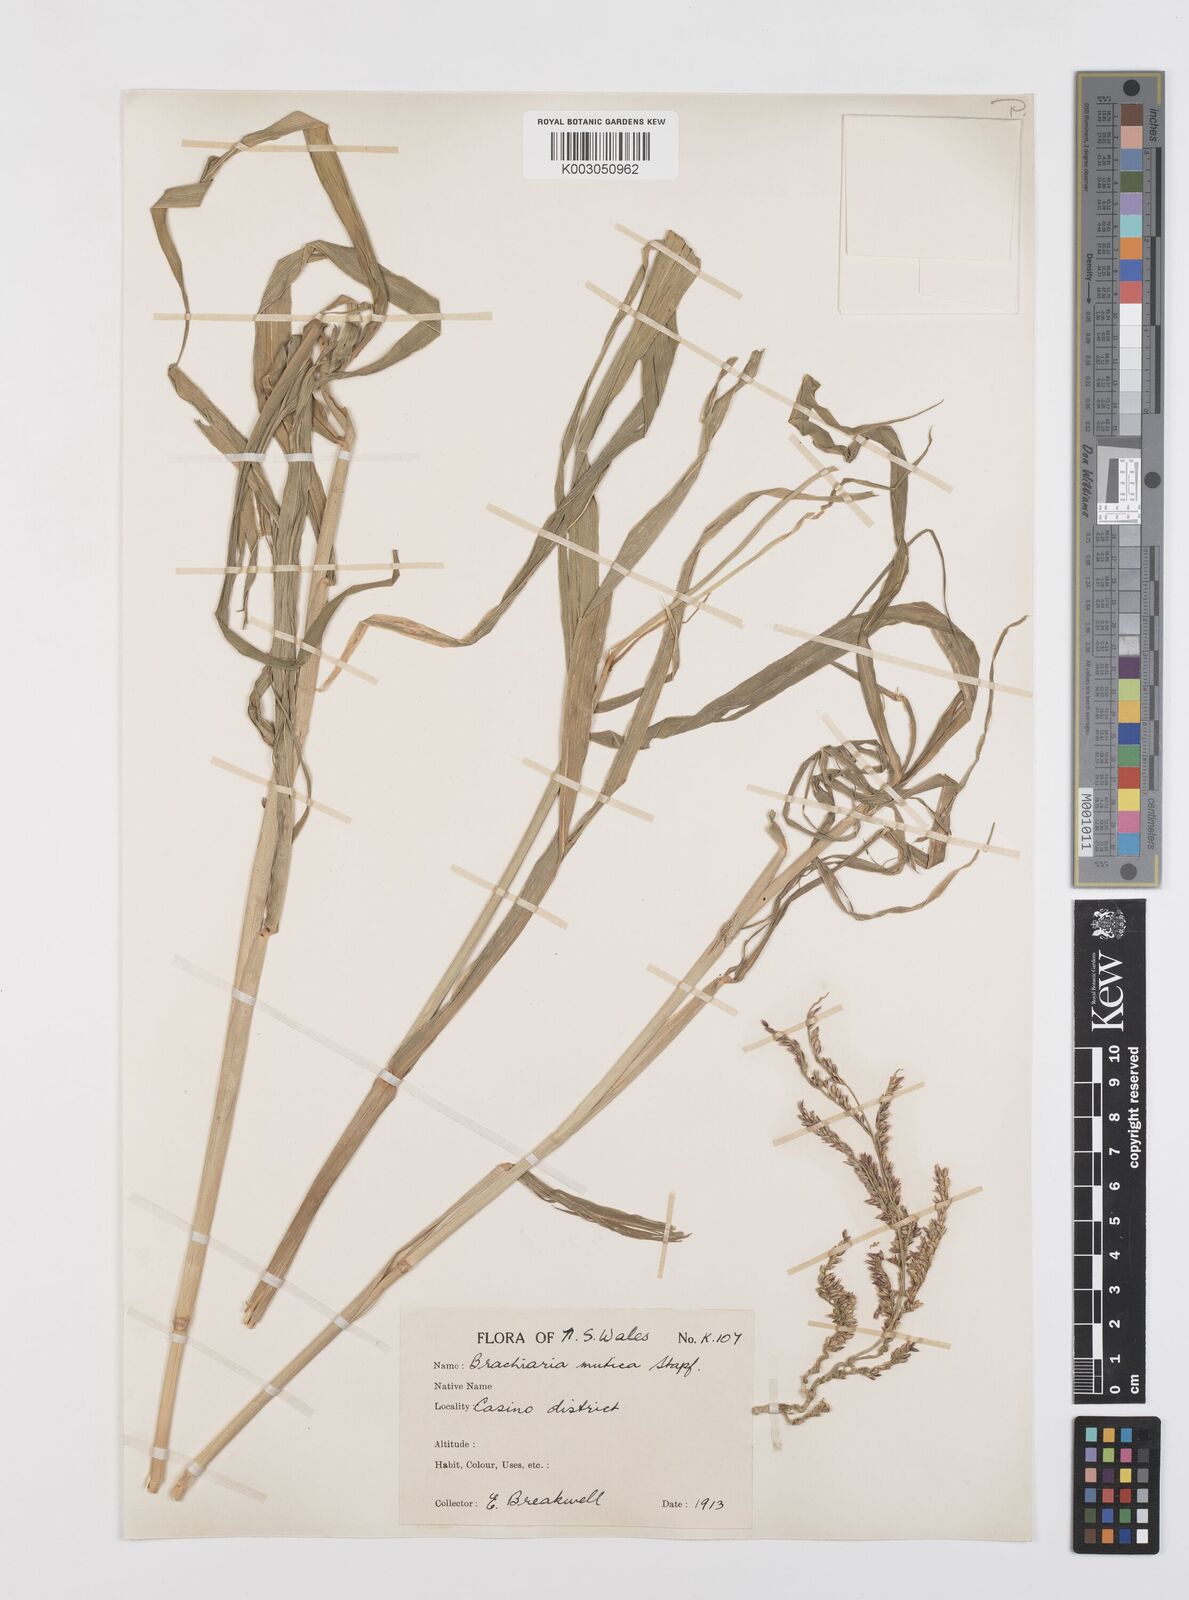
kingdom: Plantae
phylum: Tracheophyta
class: Liliopsida
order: Poales
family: Poaceae
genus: Urochloa
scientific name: Urochloa mutica
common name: Para grass
